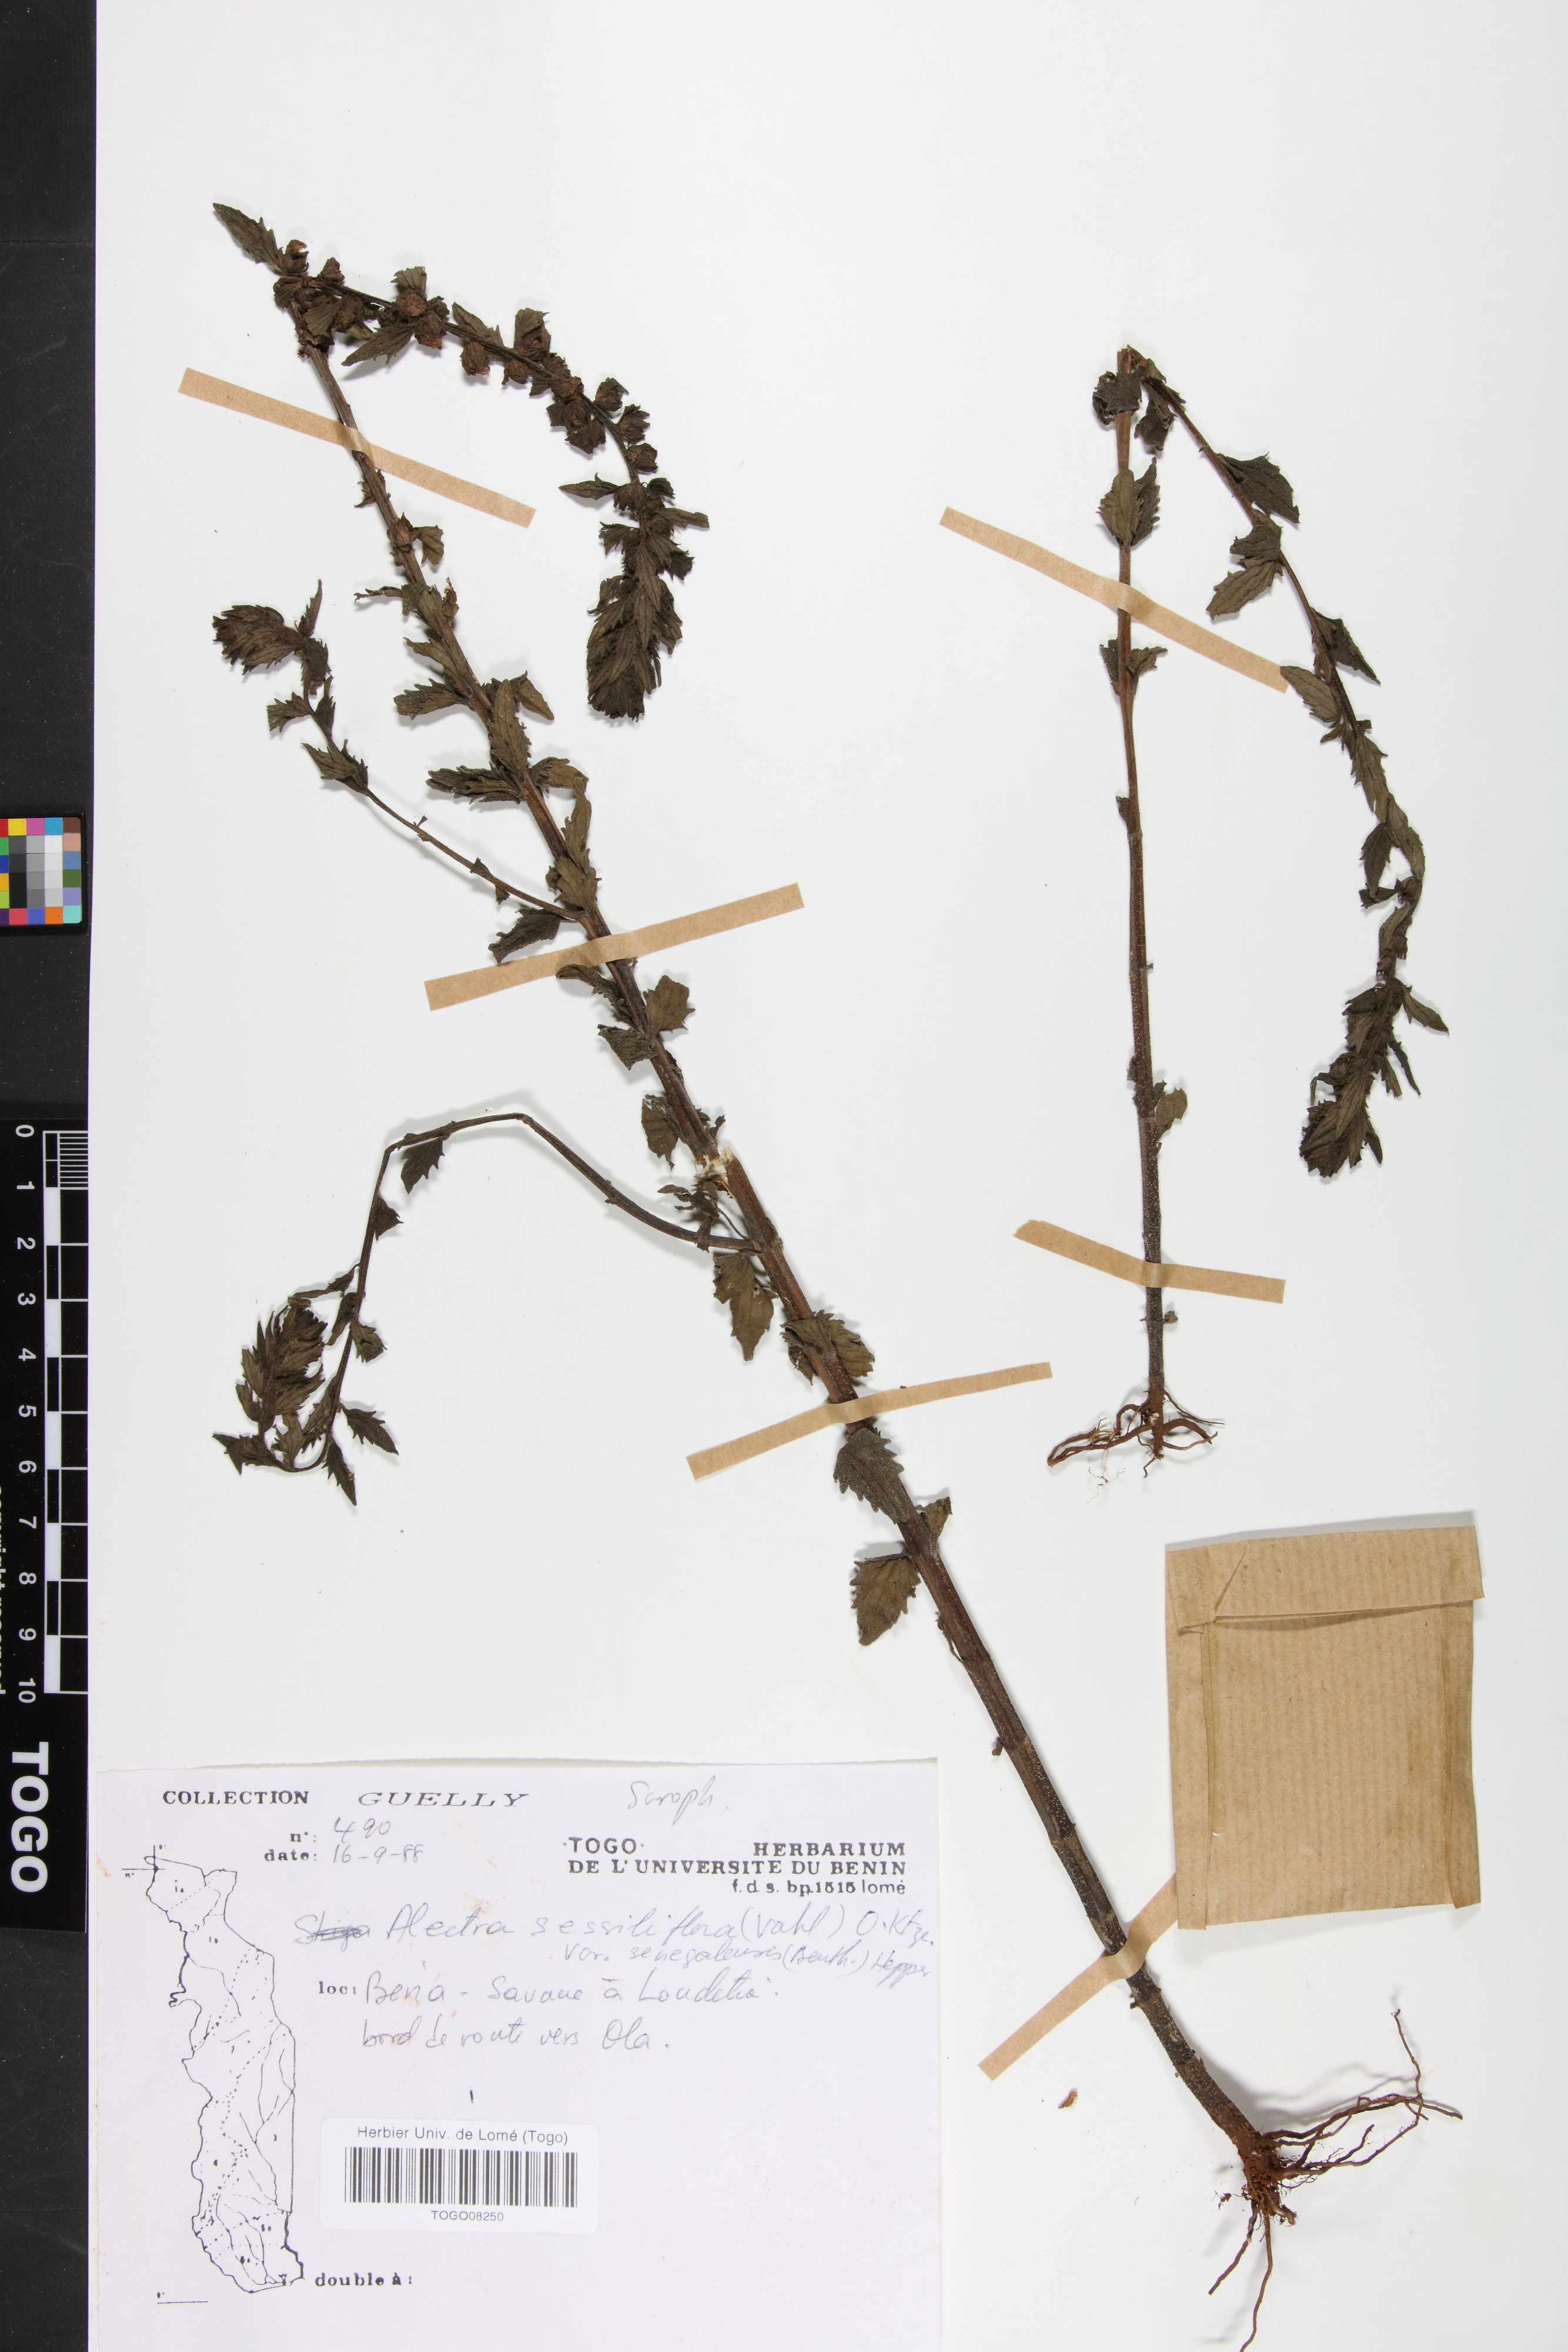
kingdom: Plantae
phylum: Tracheophyta
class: Magnoliopsida
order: Lamiales
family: Orobanchaceae
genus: Alectra
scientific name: Alectra sessiliflora
